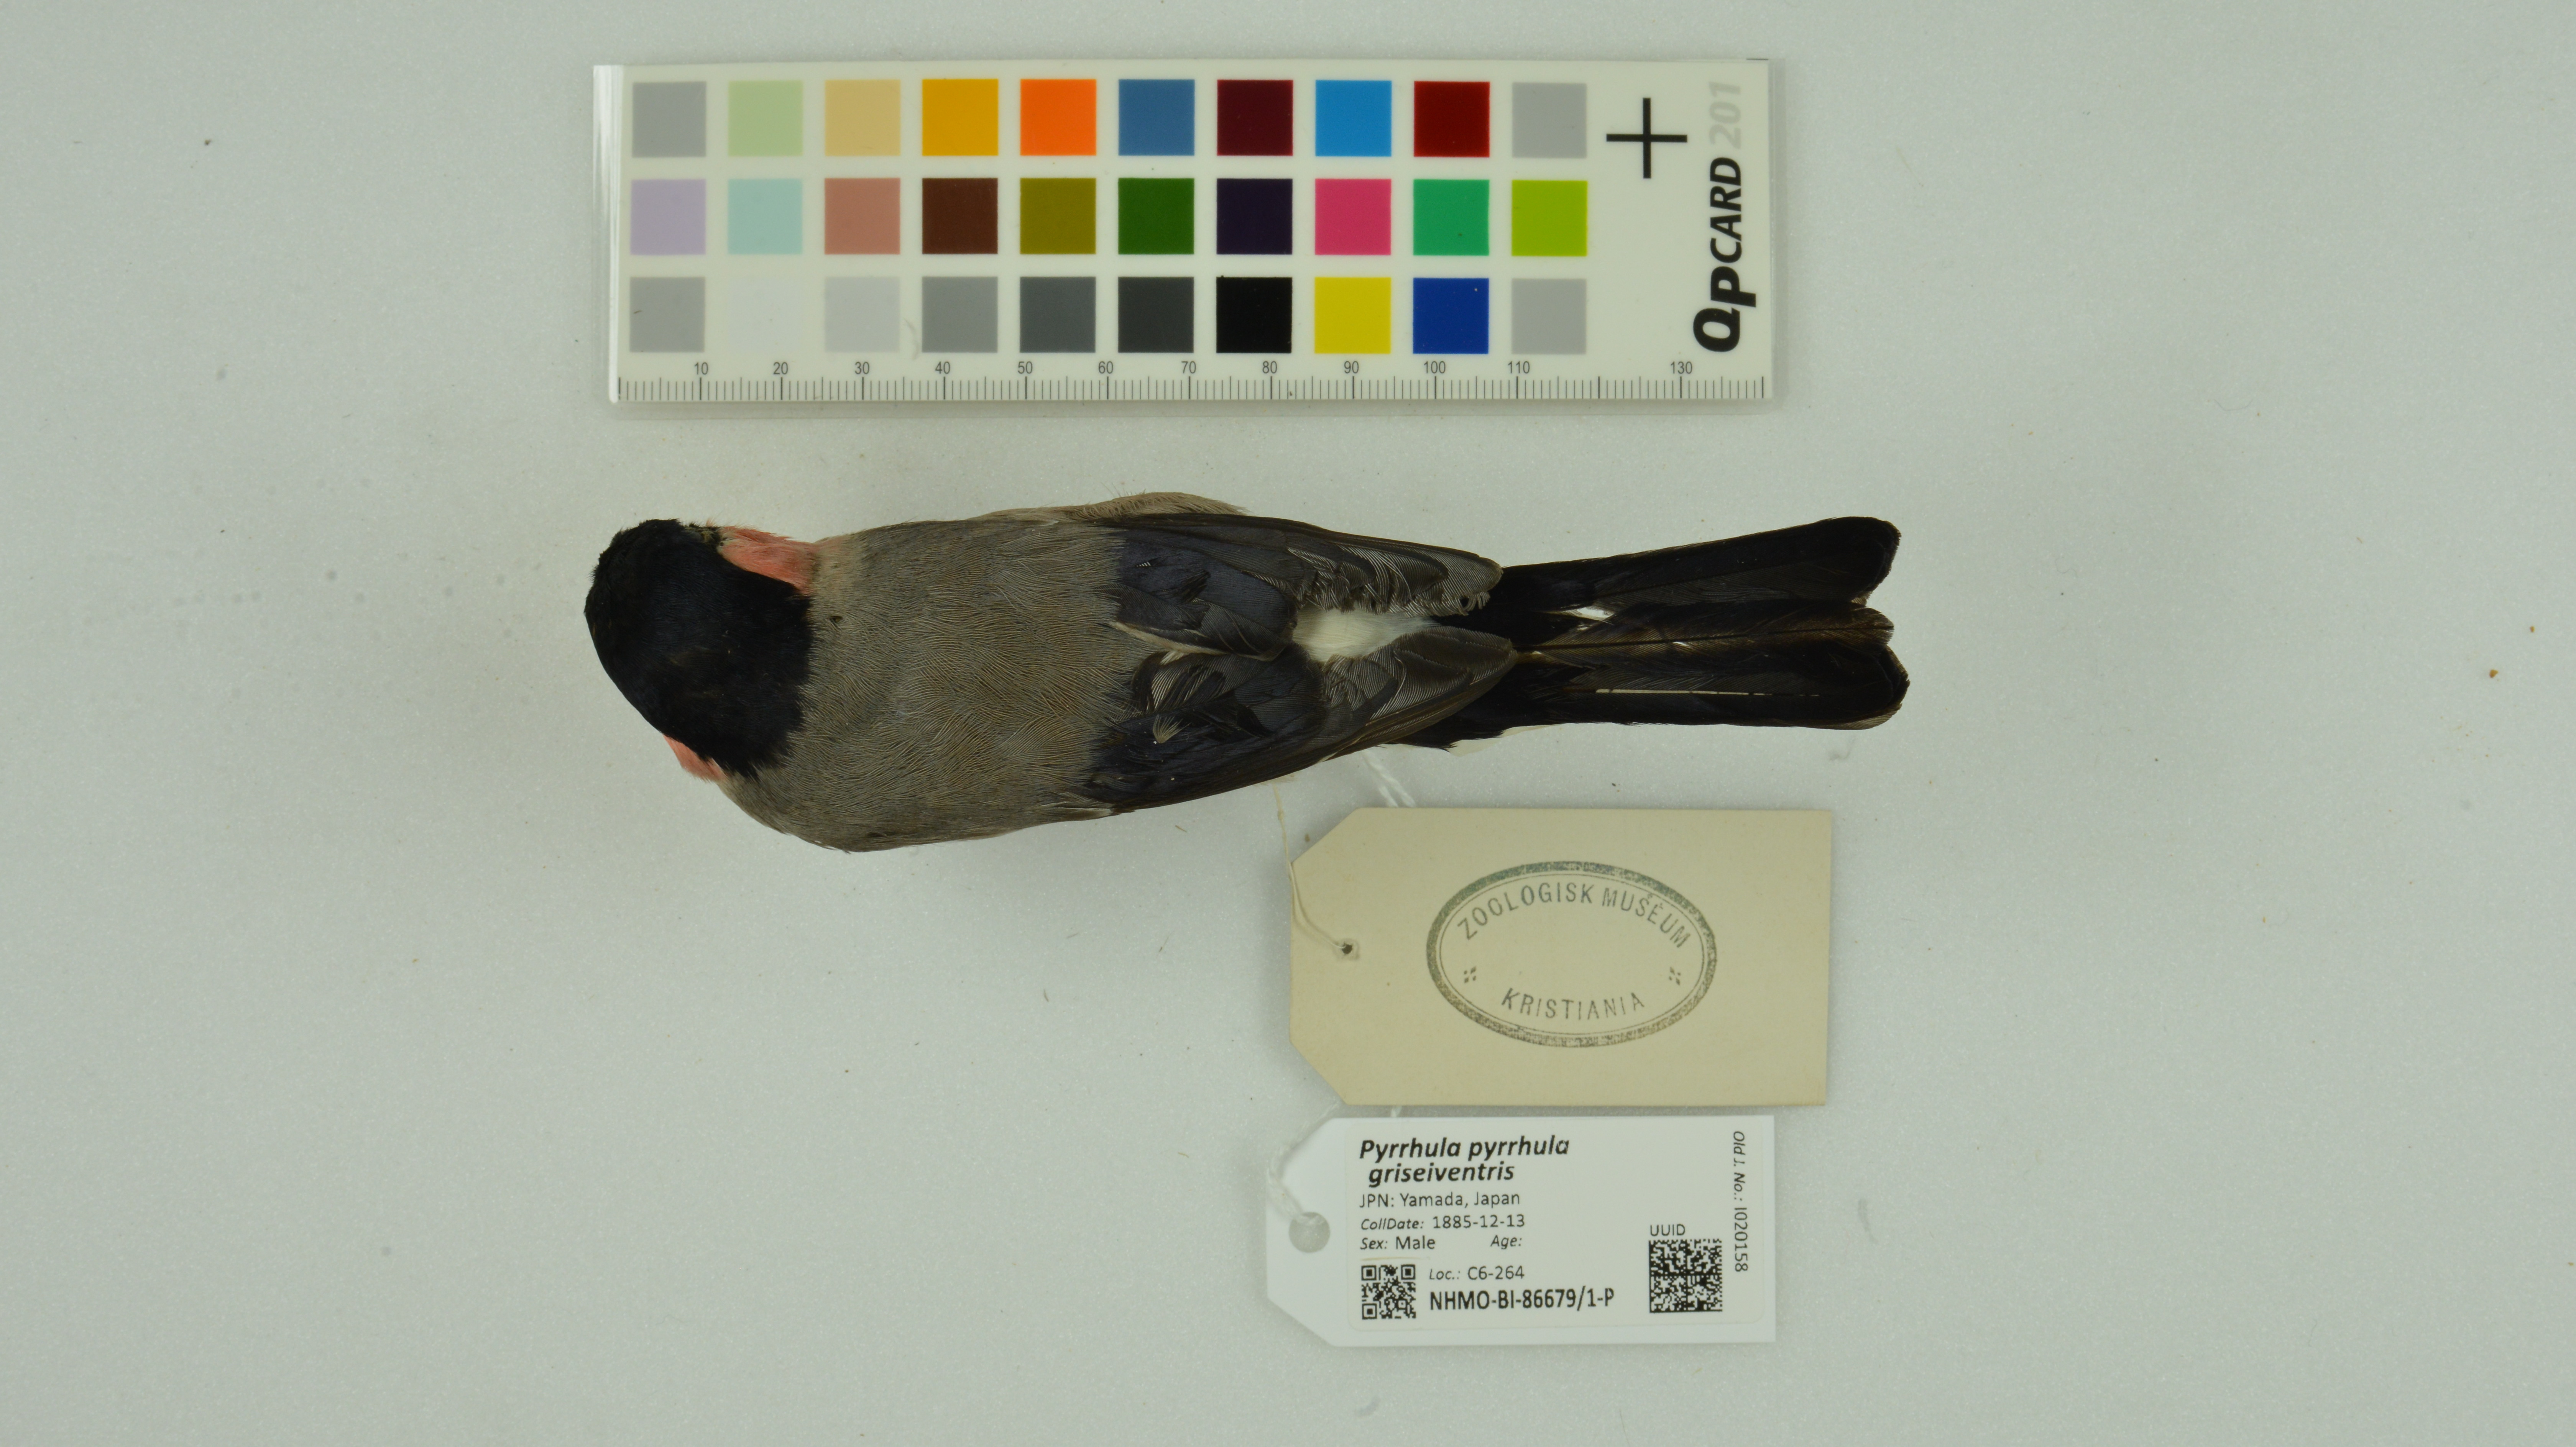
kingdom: Animalia
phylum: Chordata
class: Aves
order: Passeriformes
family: Fringillidae
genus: Pyrrhula
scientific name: Pyrrhula pyrrhula
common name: Eurasian bullfinch
